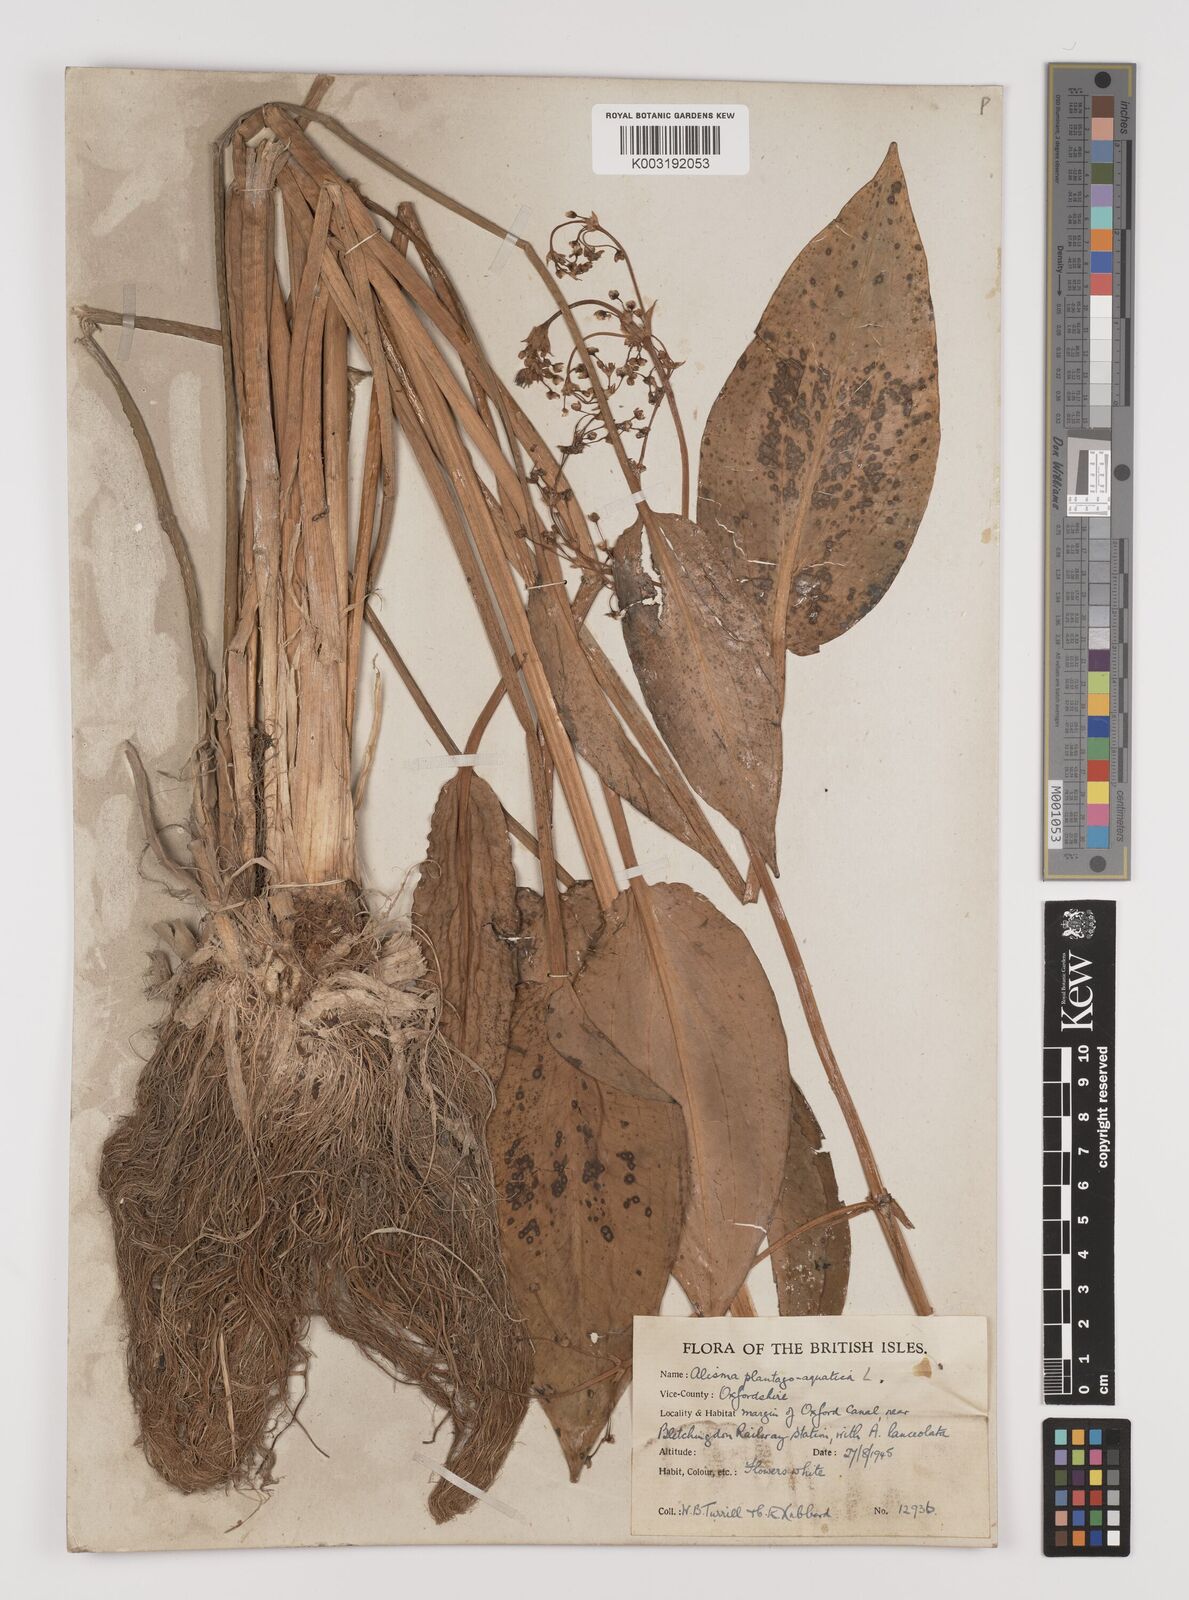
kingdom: Plantae
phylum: Tracheophyta
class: Liliopsida
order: Alismatales
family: Alismataceae
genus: Alisma
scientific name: Alisma plantago-aquatica
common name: Water-plantain
